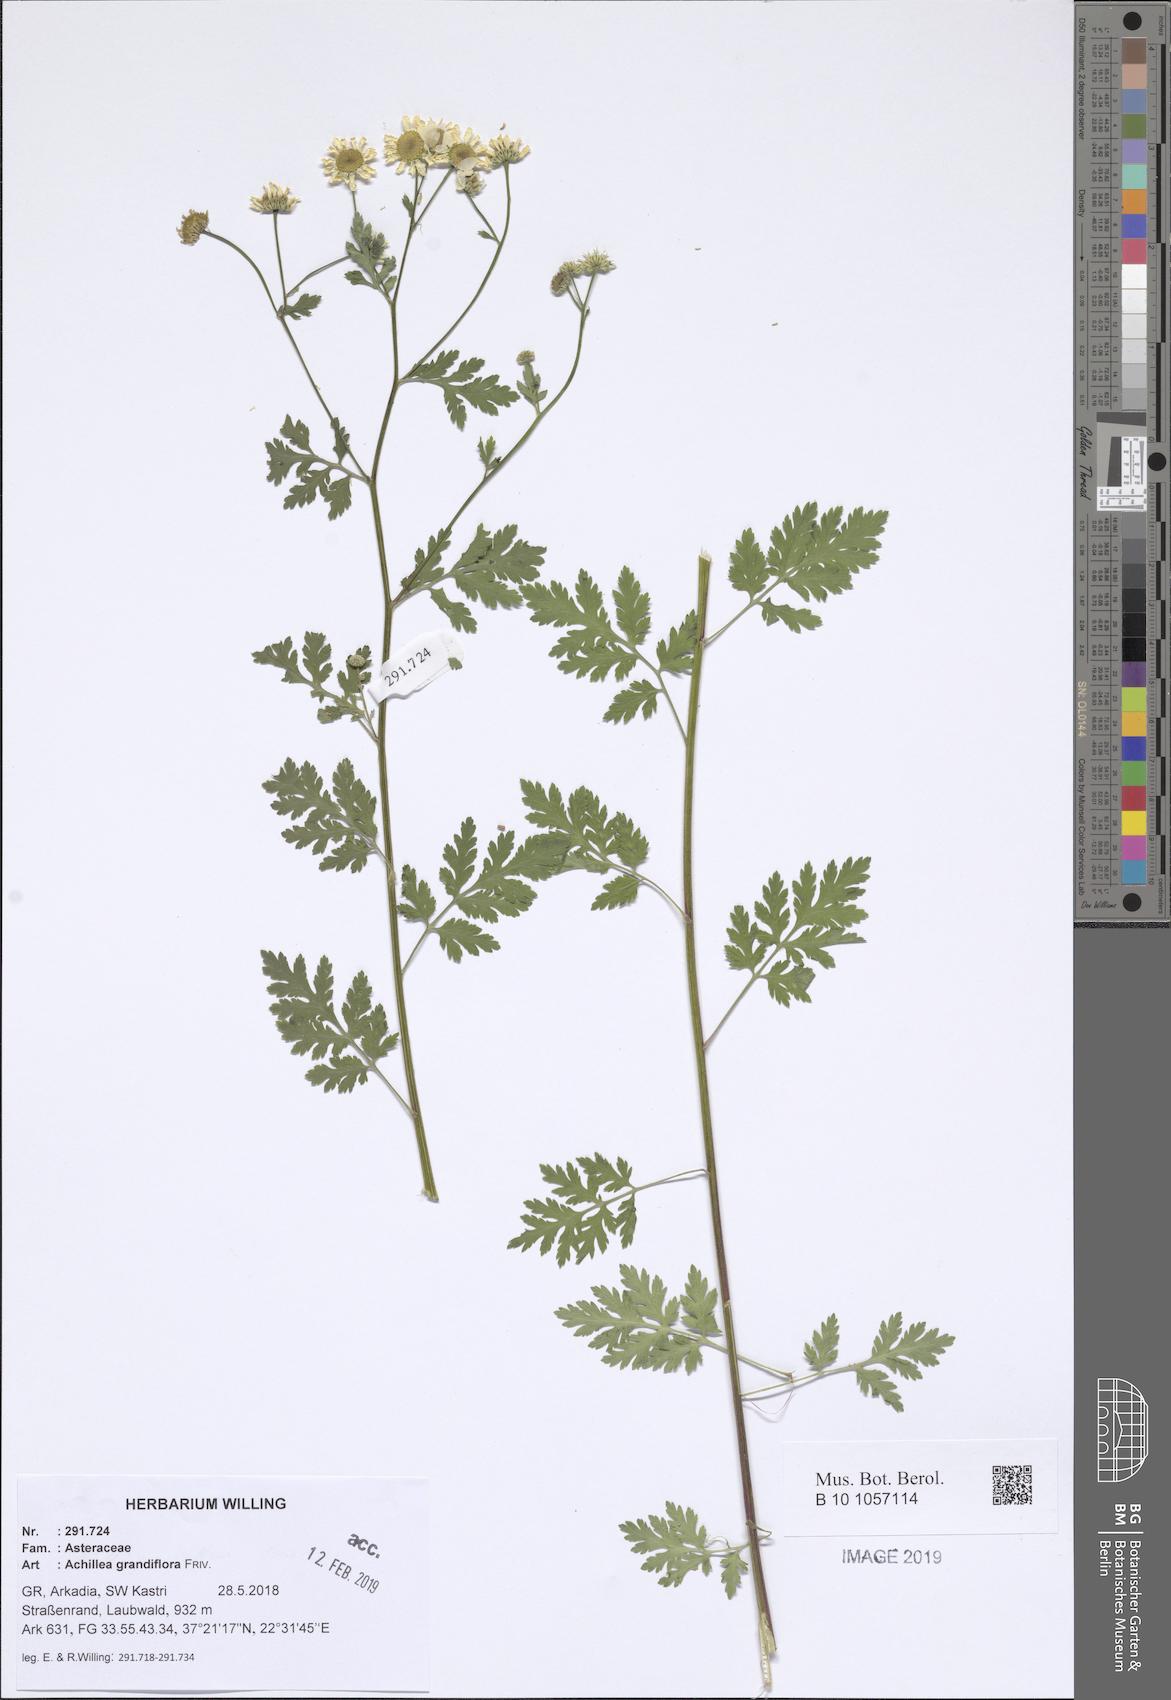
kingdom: Plantae
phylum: Tracheophyta
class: Magnoliopsida
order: Asterales
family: Asteraceae
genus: Achillea
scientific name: Achillea grandifolia
